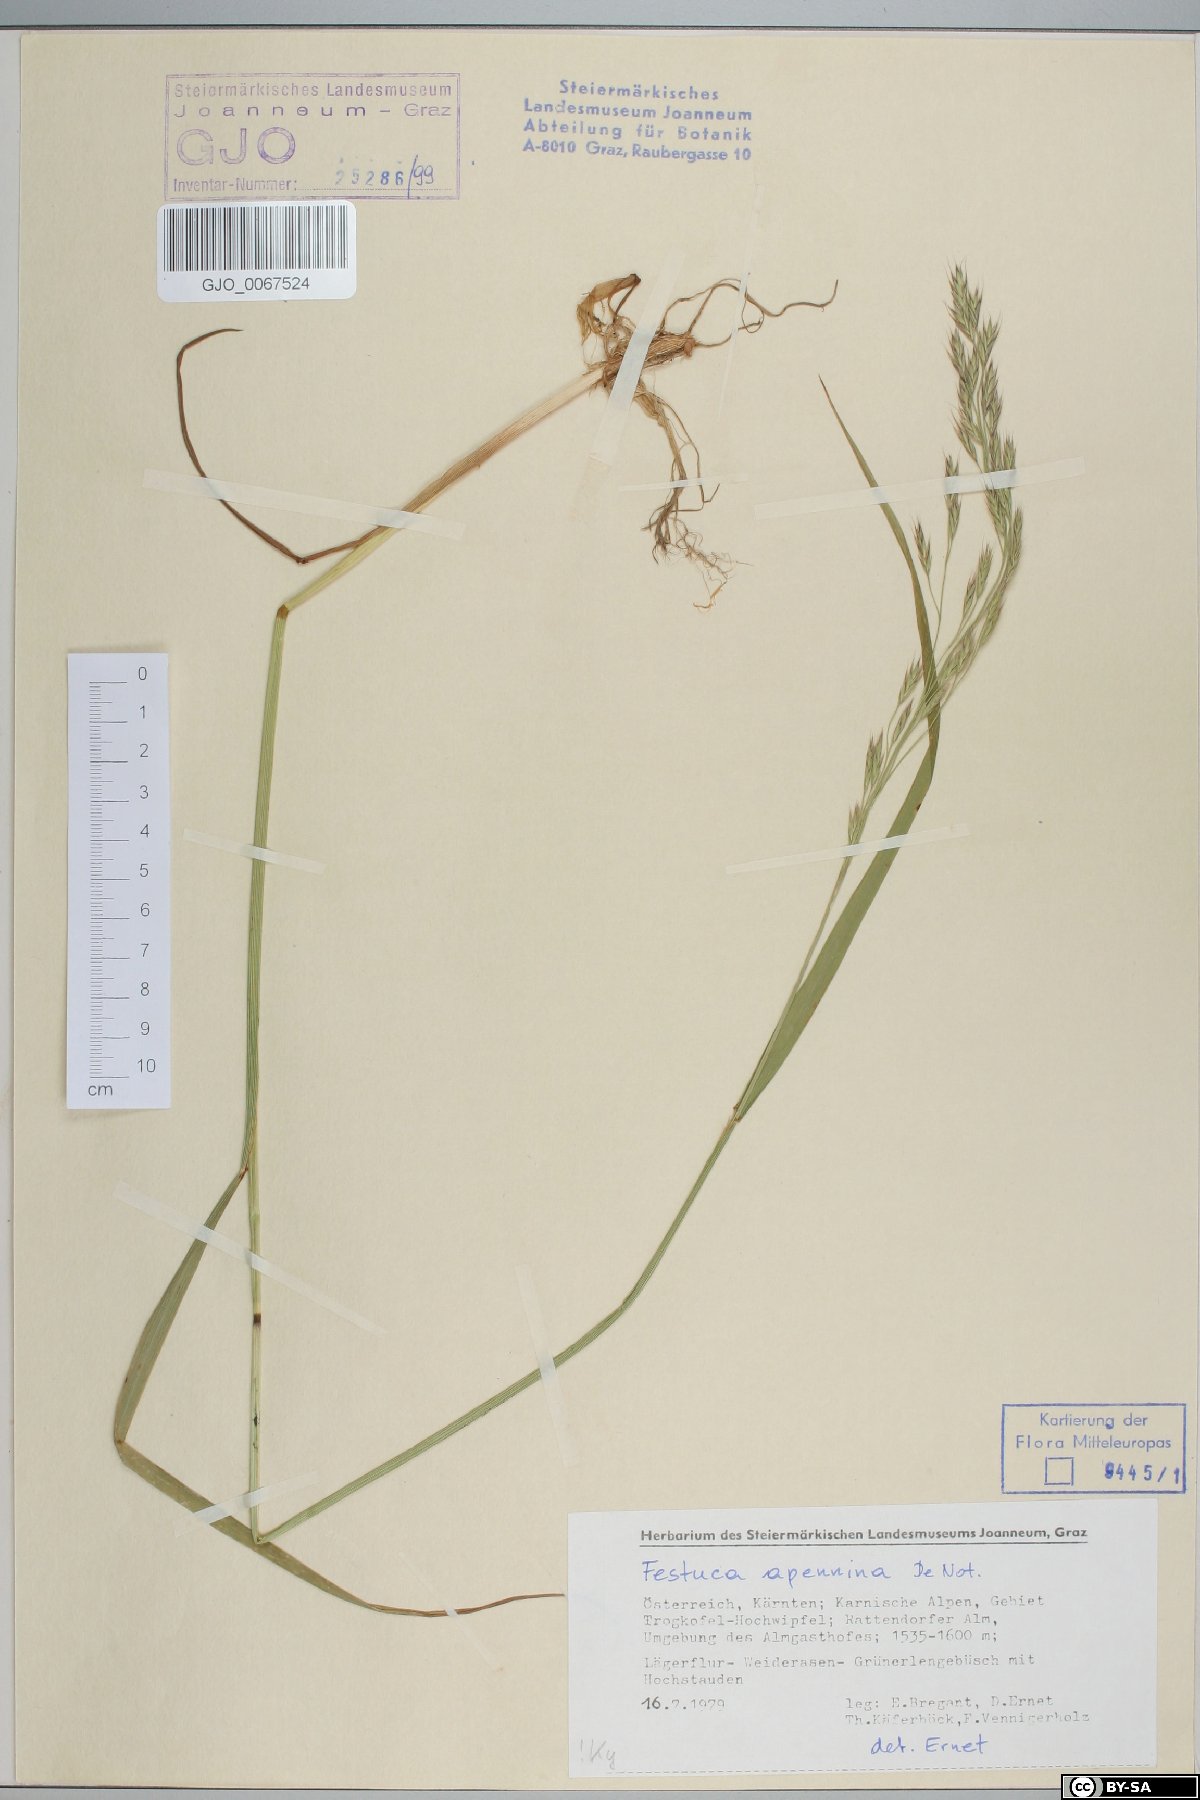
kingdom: Plantae
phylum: Tracheophyta
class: Liliopsida
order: Poales
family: Poaceae
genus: Lolium
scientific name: Lolium apenninum
